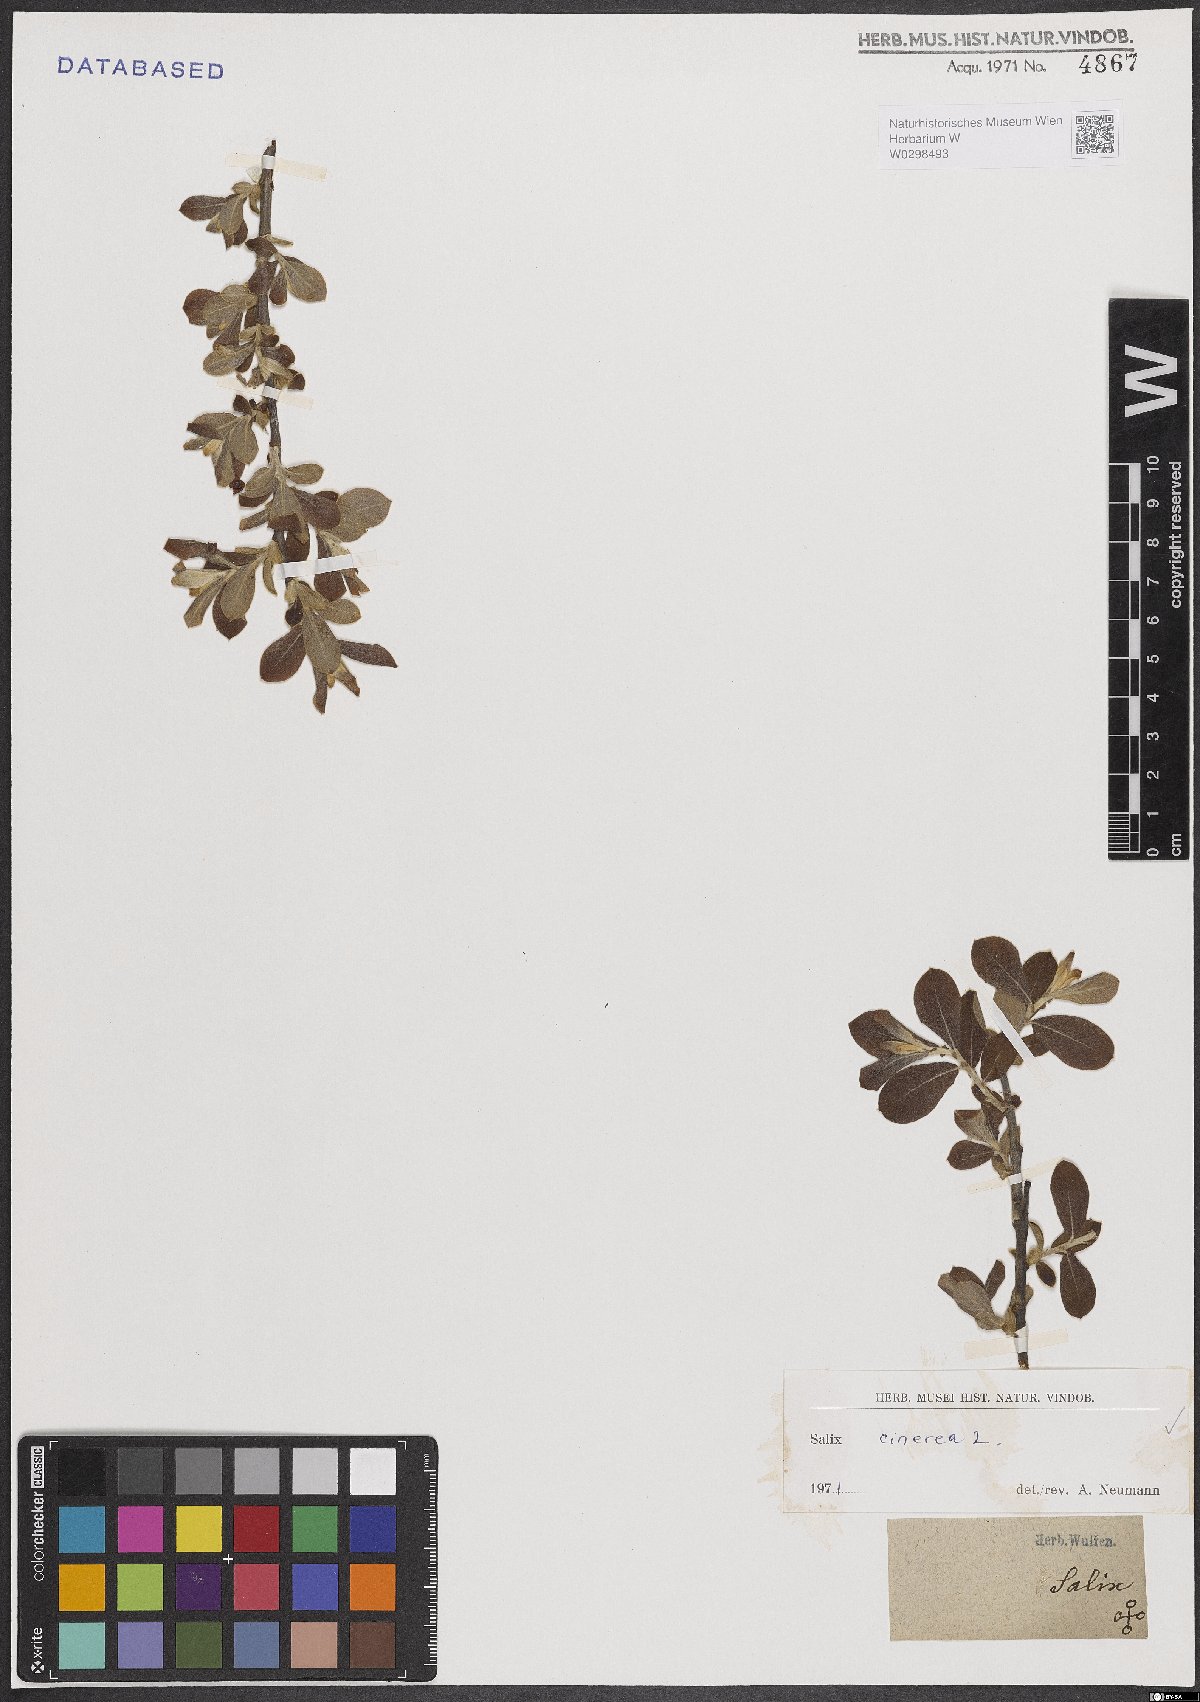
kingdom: Plantae
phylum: Tracheophyta
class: Magnoliopsida
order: Malpighiales
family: Salicaceae
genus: Salix
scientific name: Salix cinerea
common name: Common sallow
